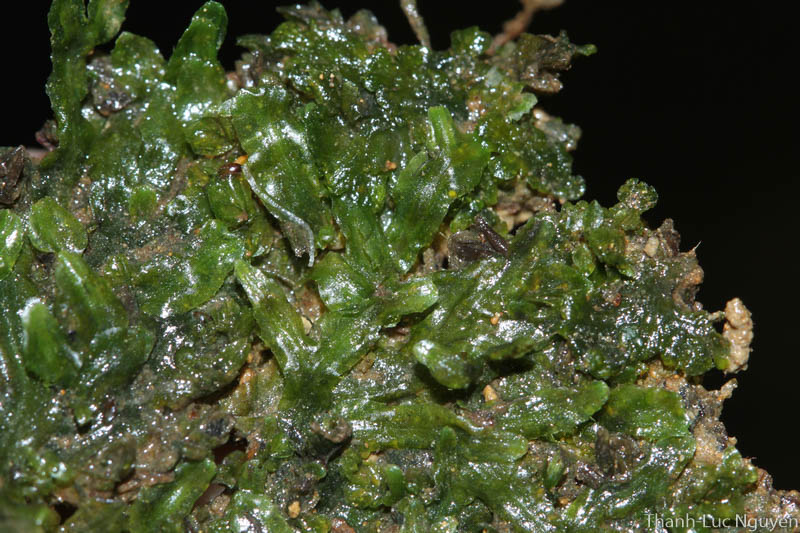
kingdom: Plantae
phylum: Marchantiophyta
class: Jungermanniopsida
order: Pallaviciniales
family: Pallaviciniaceae
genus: Pallavicinia
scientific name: Pallavicinia
